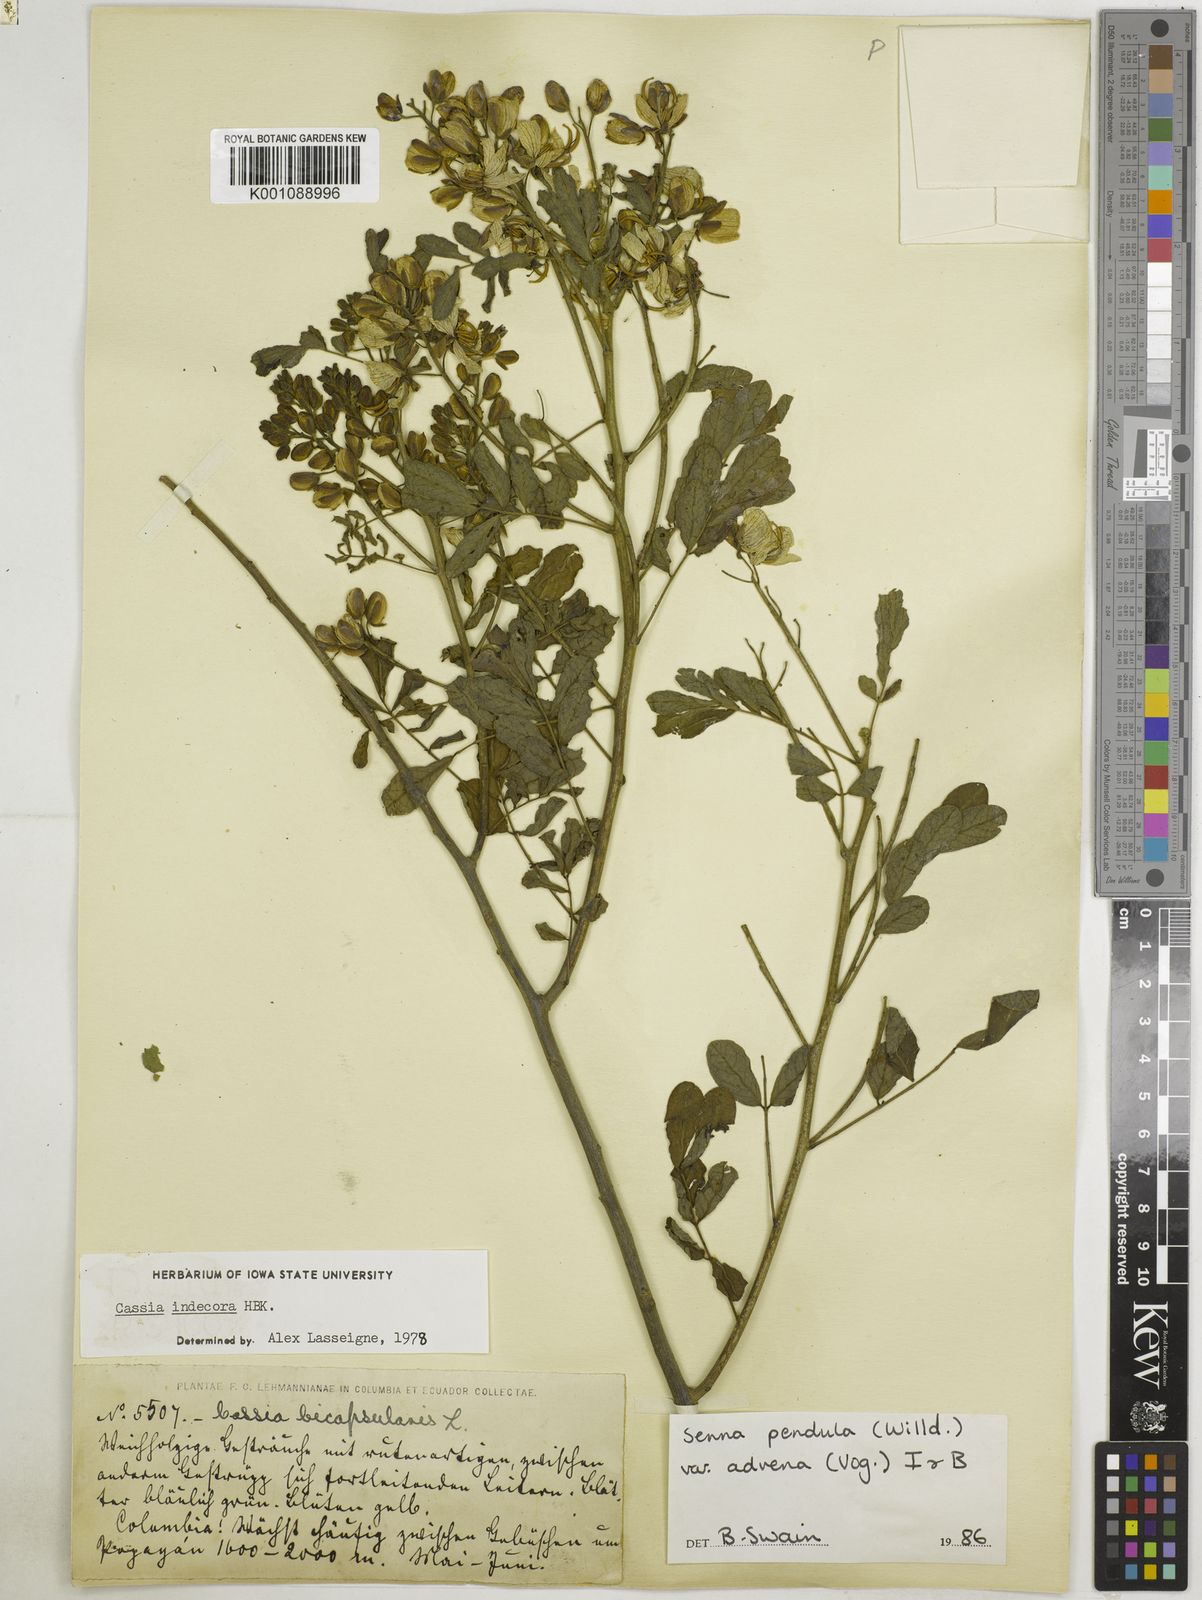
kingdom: Plantae
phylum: Tracheophyta
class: Magnoliopsida
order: Fabales
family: Fabaceae
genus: Senna
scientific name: Senna pendula
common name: Easter cassia
